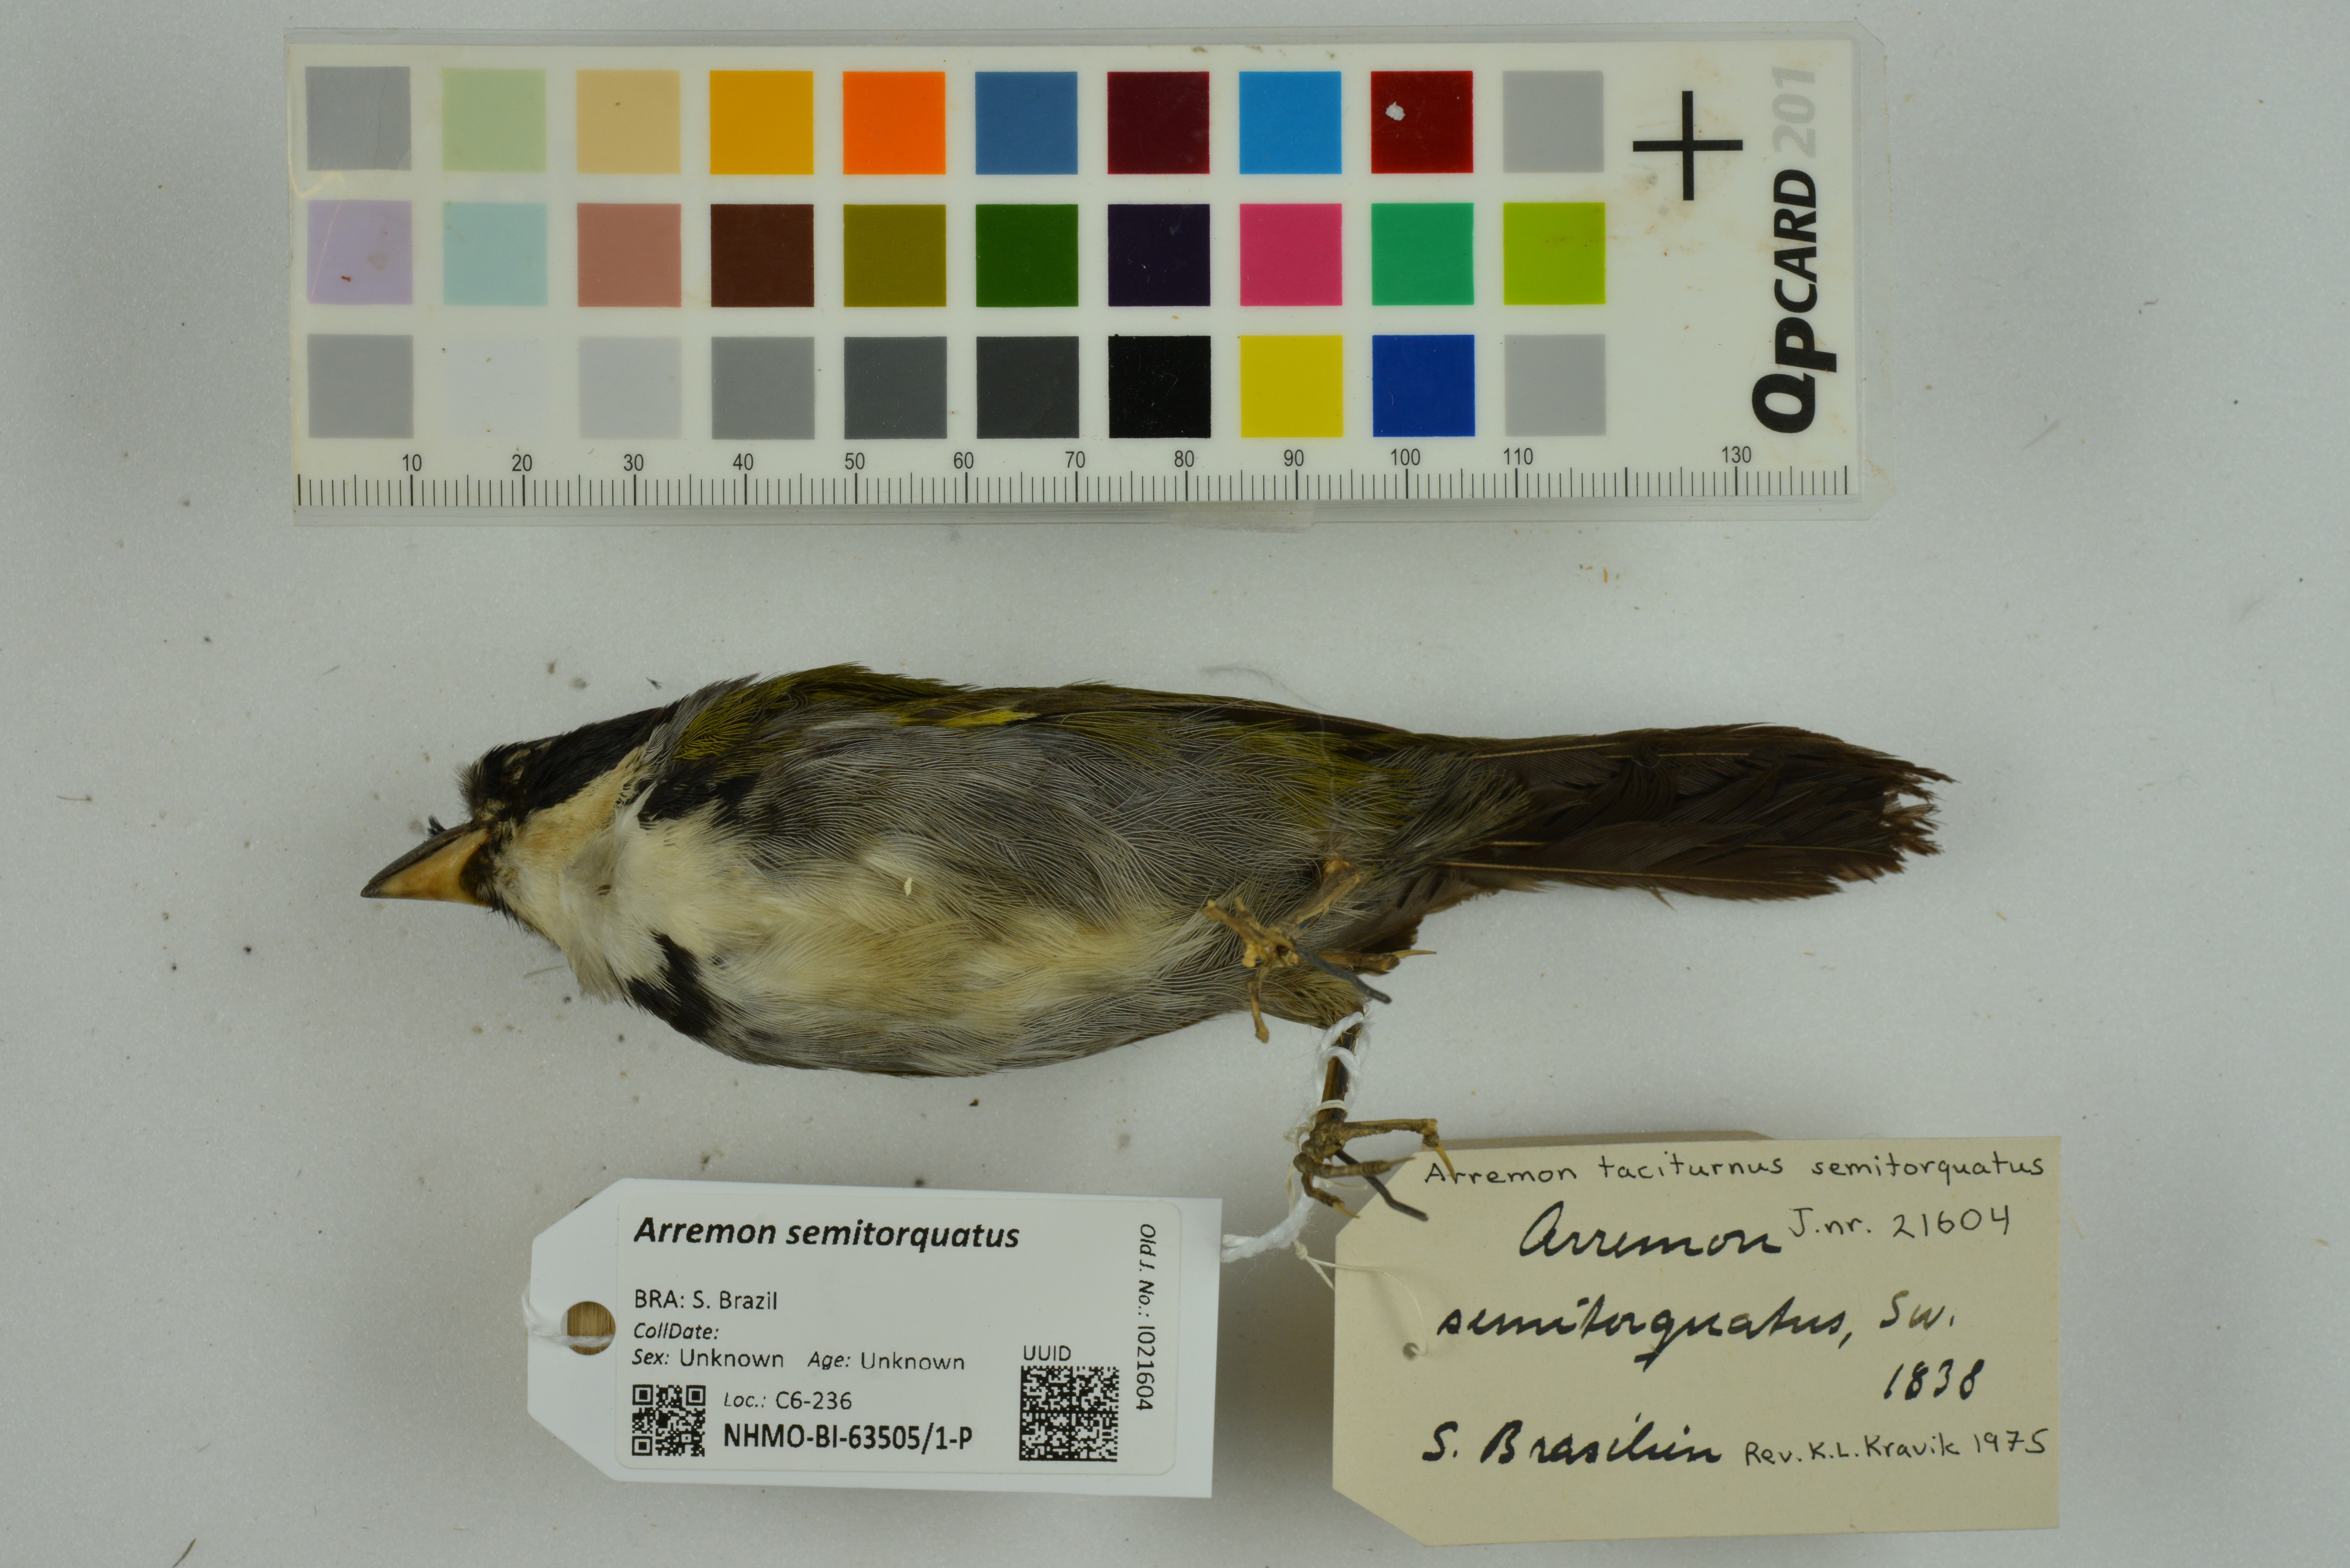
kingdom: Animalia
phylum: Chordata
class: Aves
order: Passeriformes
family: Passerellidae
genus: Arremon
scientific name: Arremon semitorquatus
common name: Half-collared sparrow
